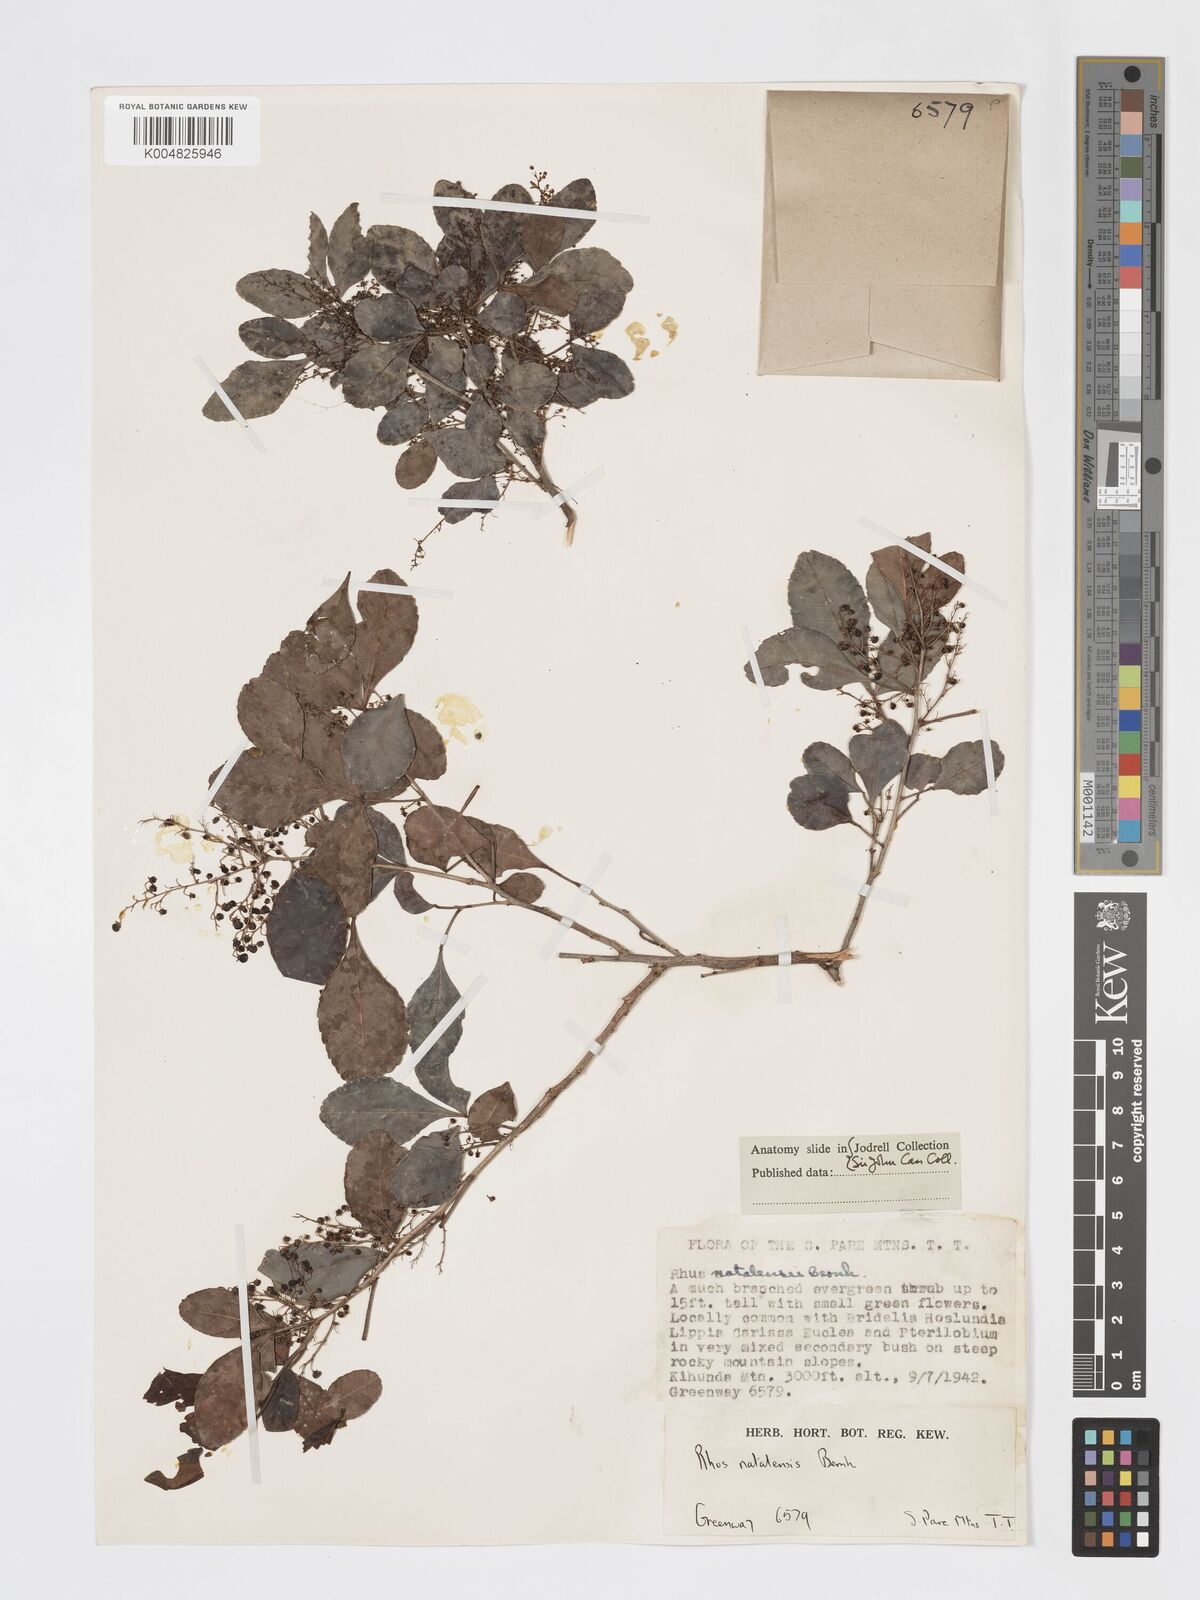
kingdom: Plantae
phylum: Tracheophyta
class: Magnoliopsida
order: Sapindales
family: Anacardiaceae
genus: Searsia
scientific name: Searsia natalensis
